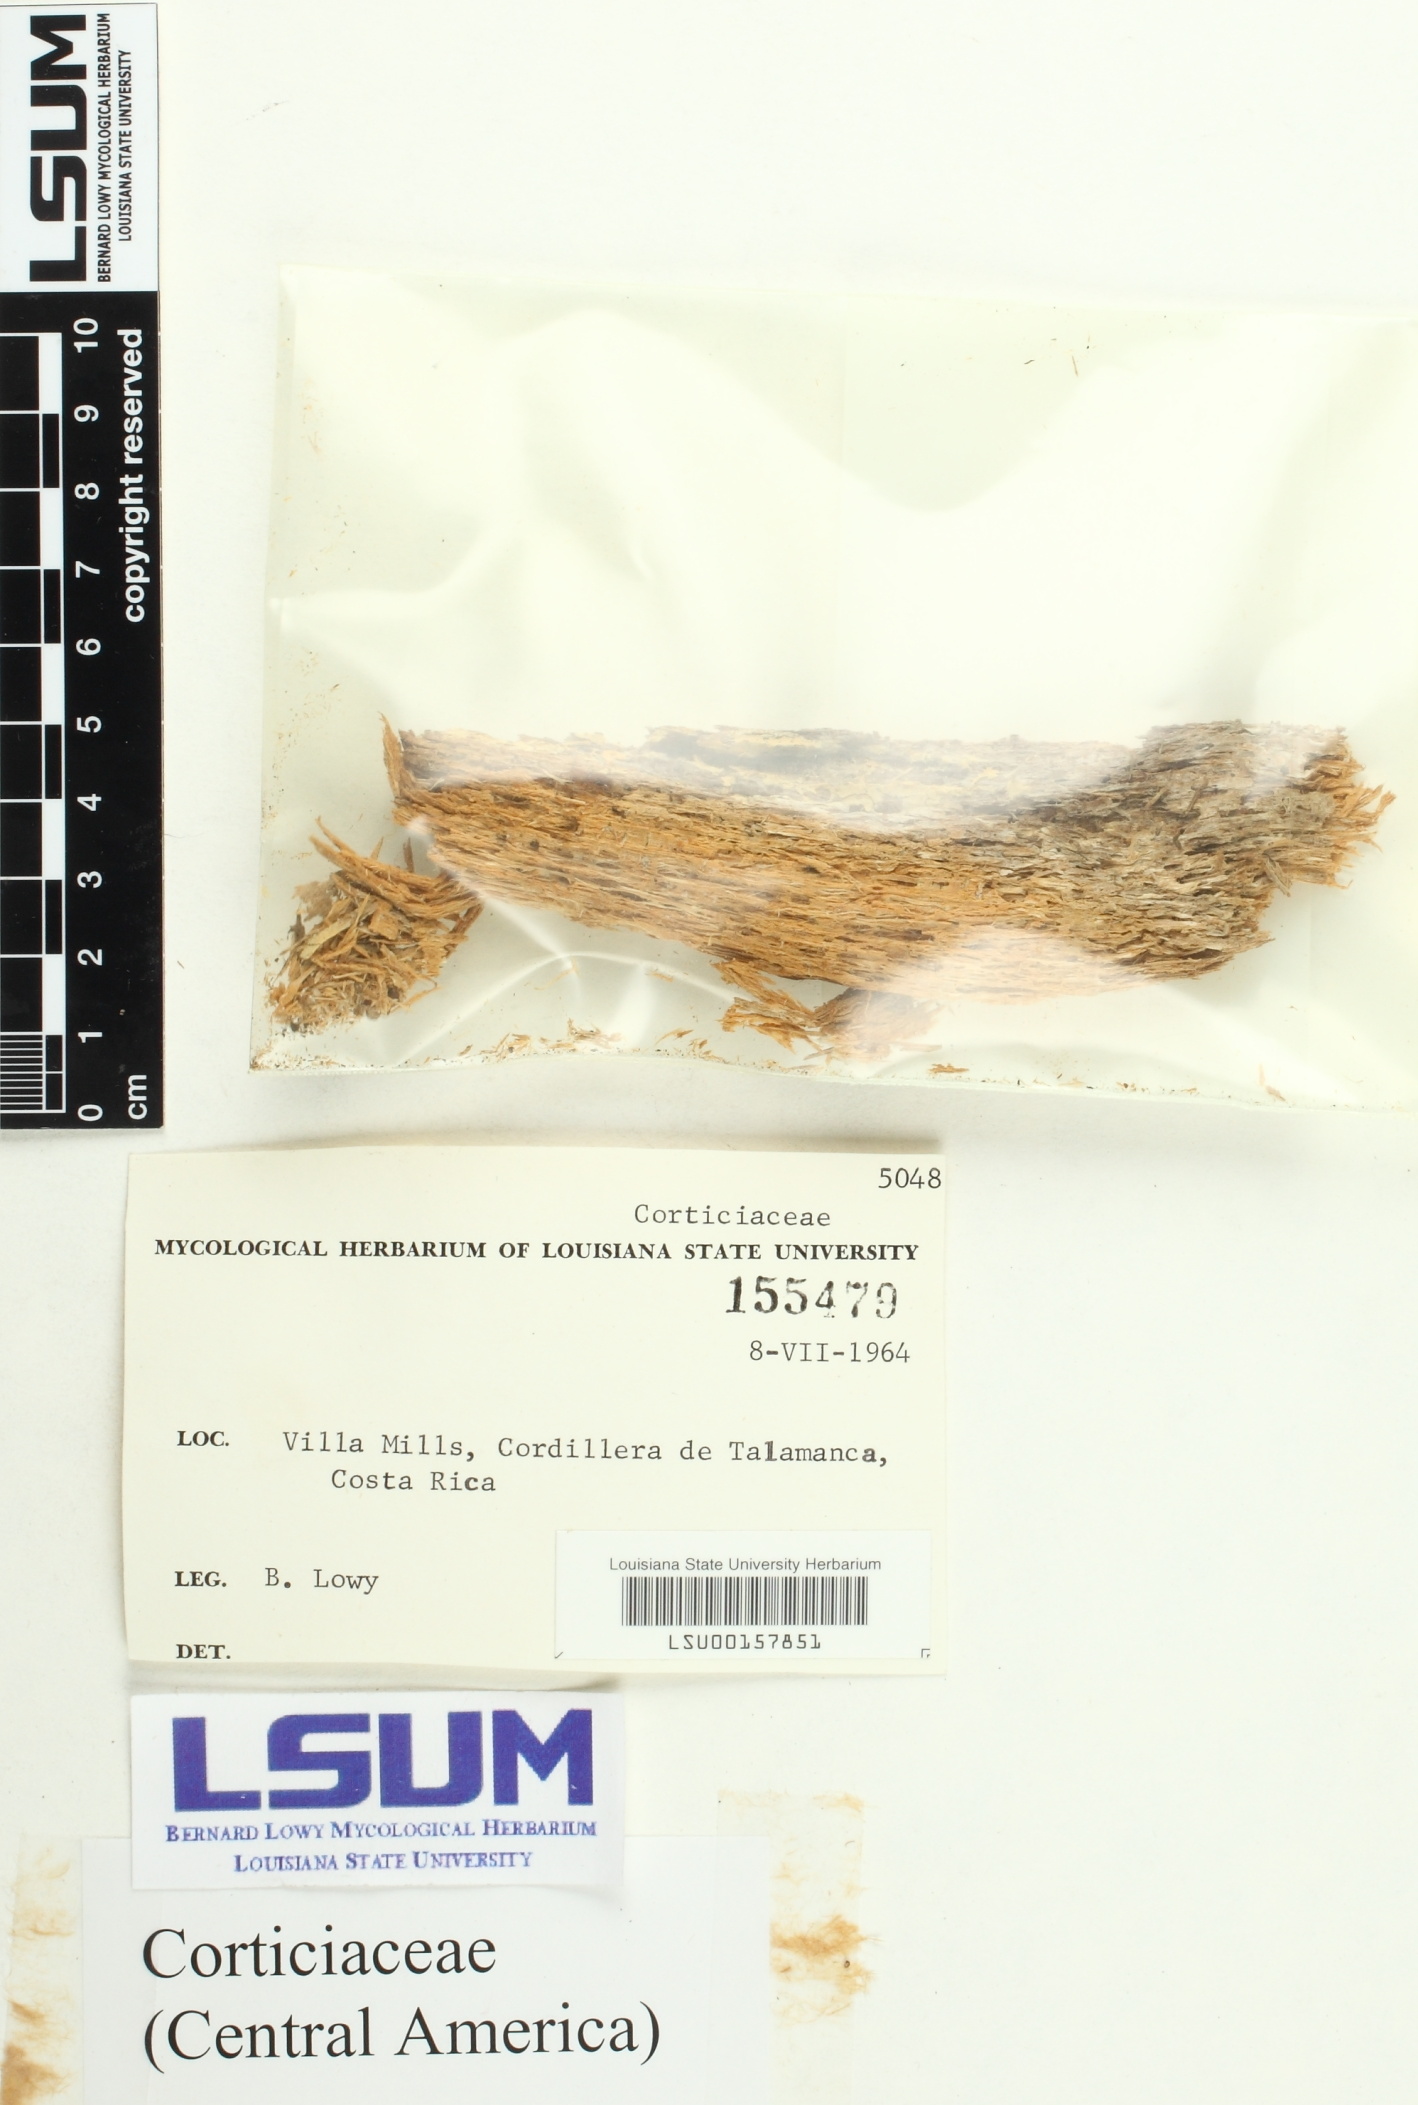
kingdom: Fungi
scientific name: Fungi
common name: Fungi
